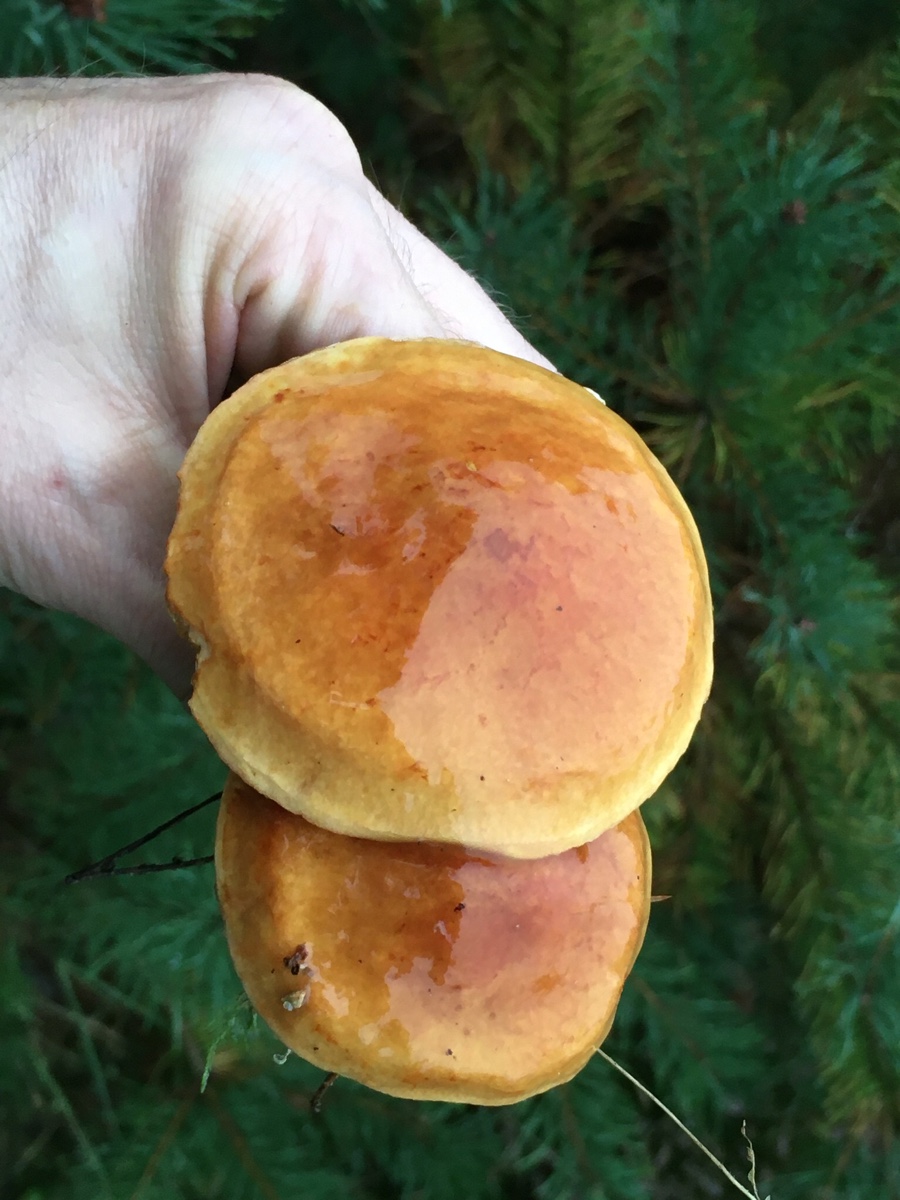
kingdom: Fungi
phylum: Basidiomycota
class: Agaricomycetes
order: Boletales
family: Suillaceae
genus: Suillus
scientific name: Suillus grevillei
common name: lærke-slimrørhat
